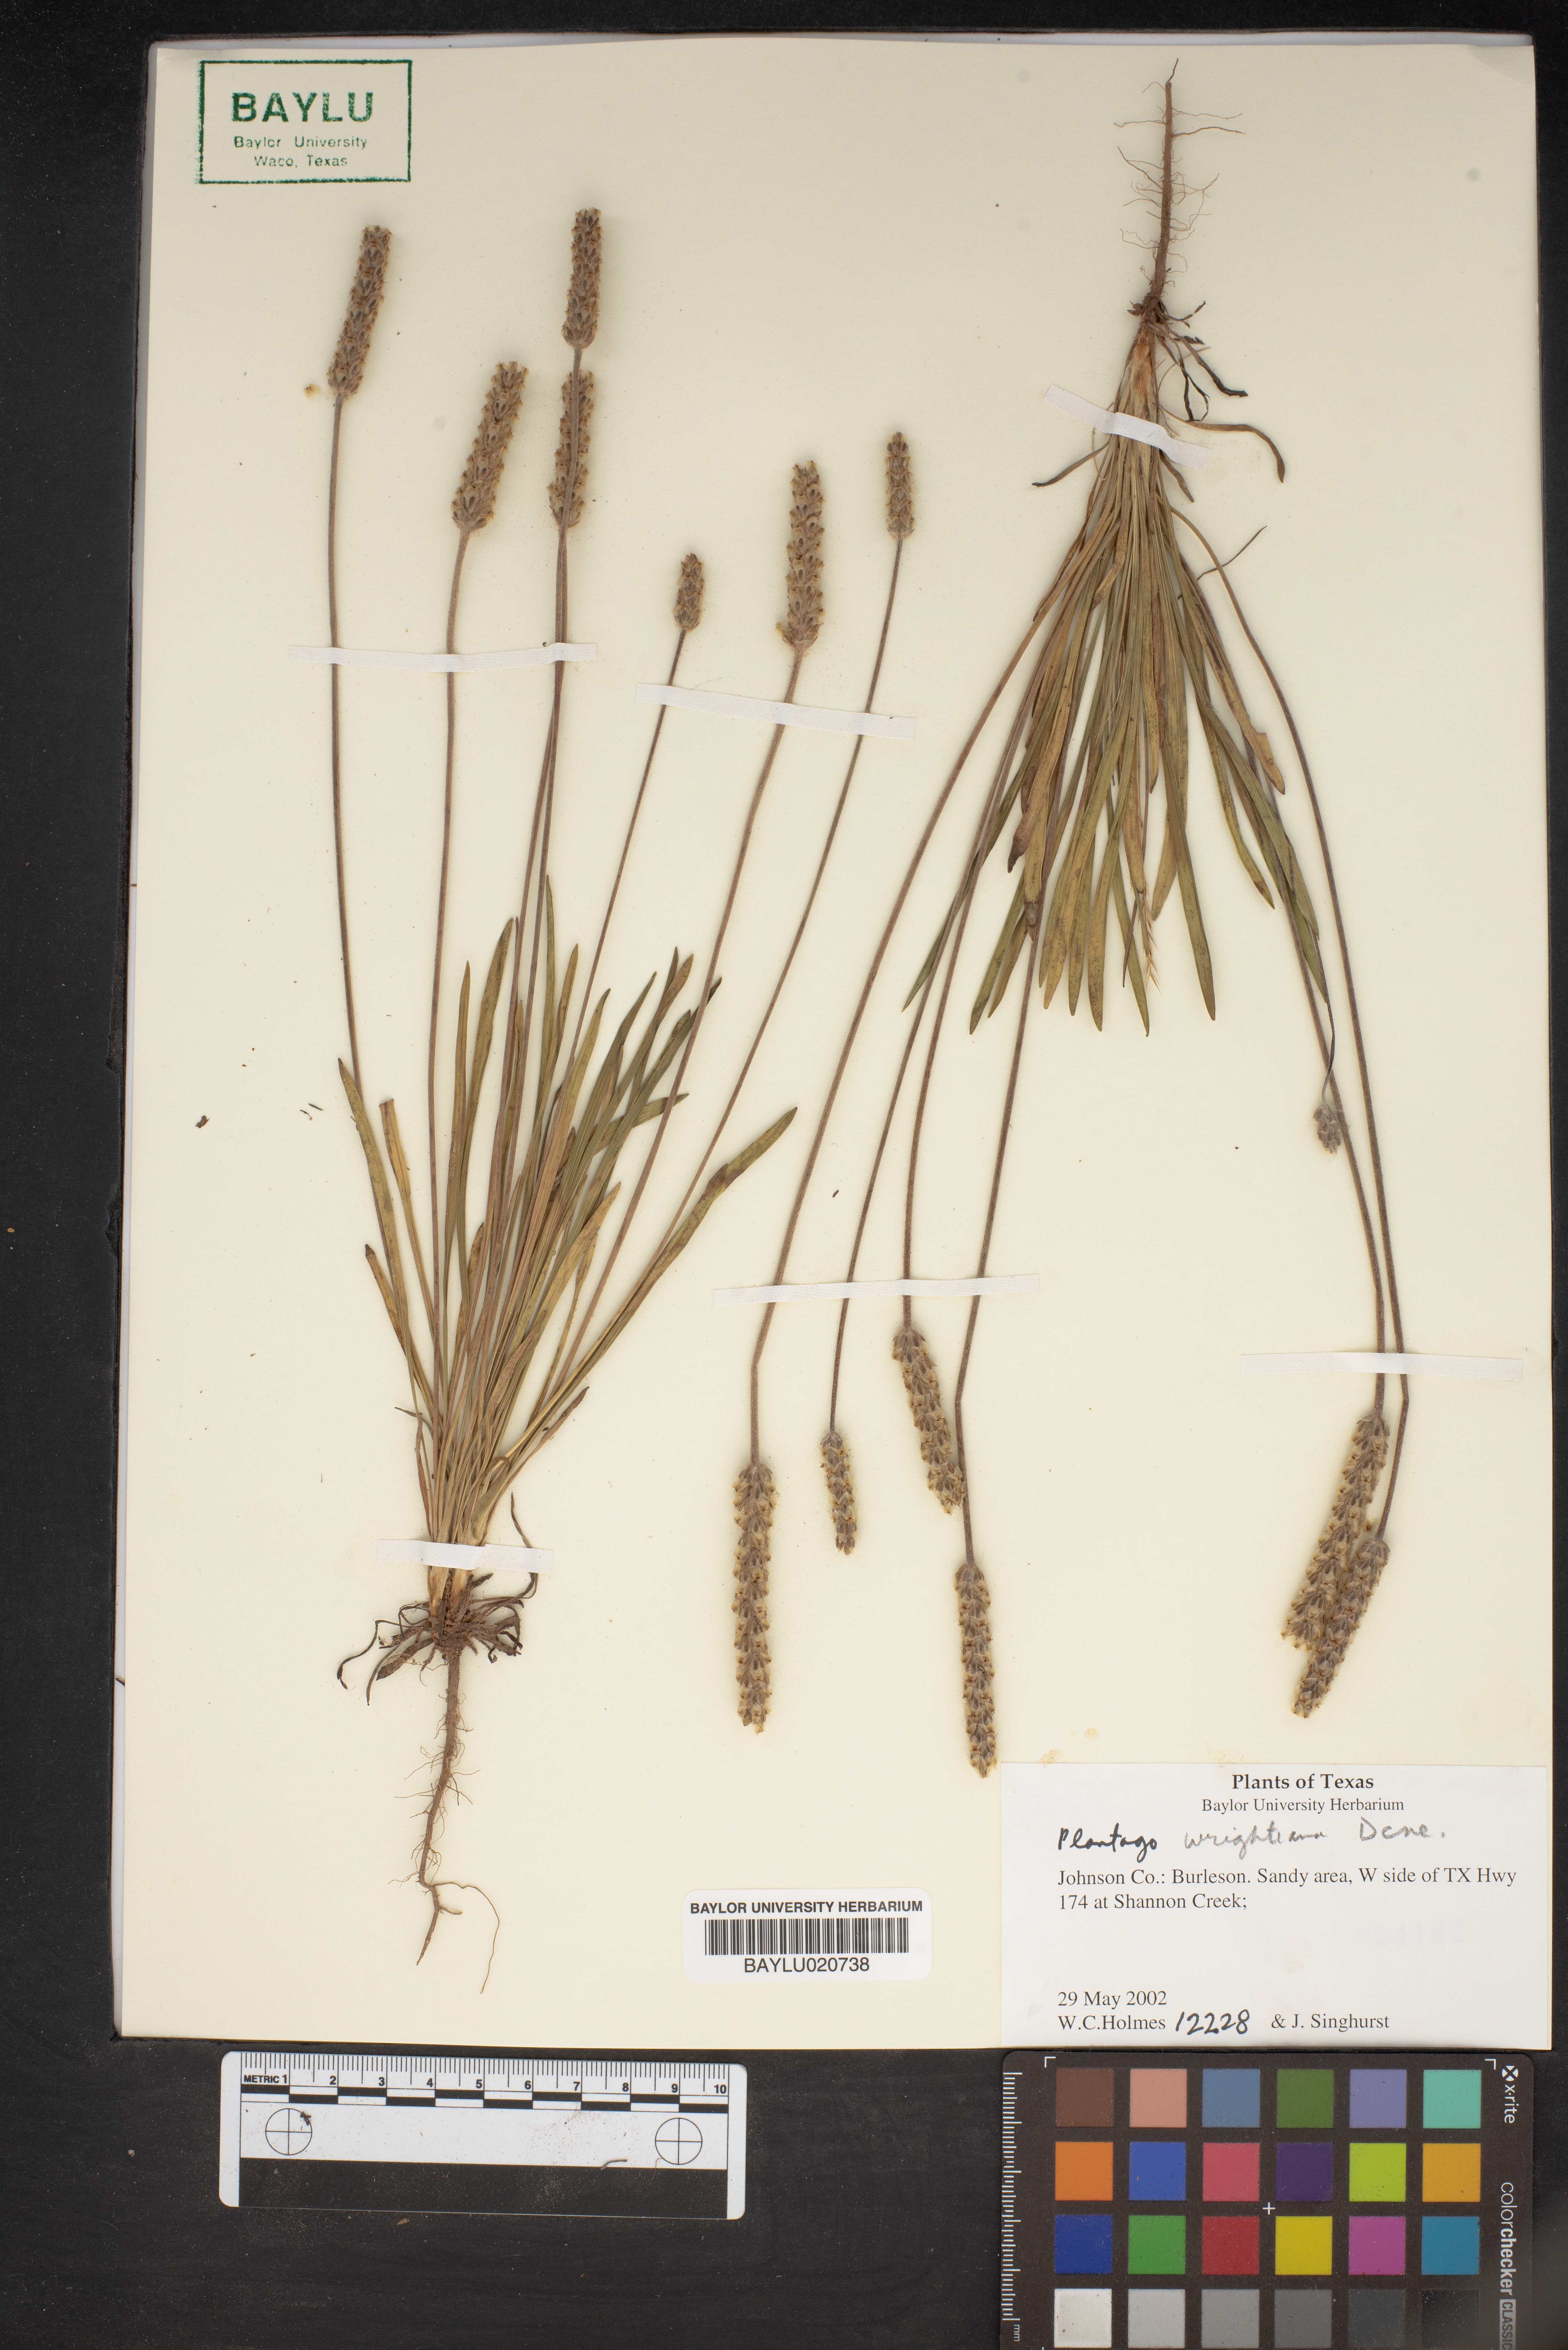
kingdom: Plantae
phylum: Tracheophyta
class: Magnoliopsida
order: Lamiales
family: Plantaginaceae
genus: Plantago
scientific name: Plantago wrightiana
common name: Wright's plantain
